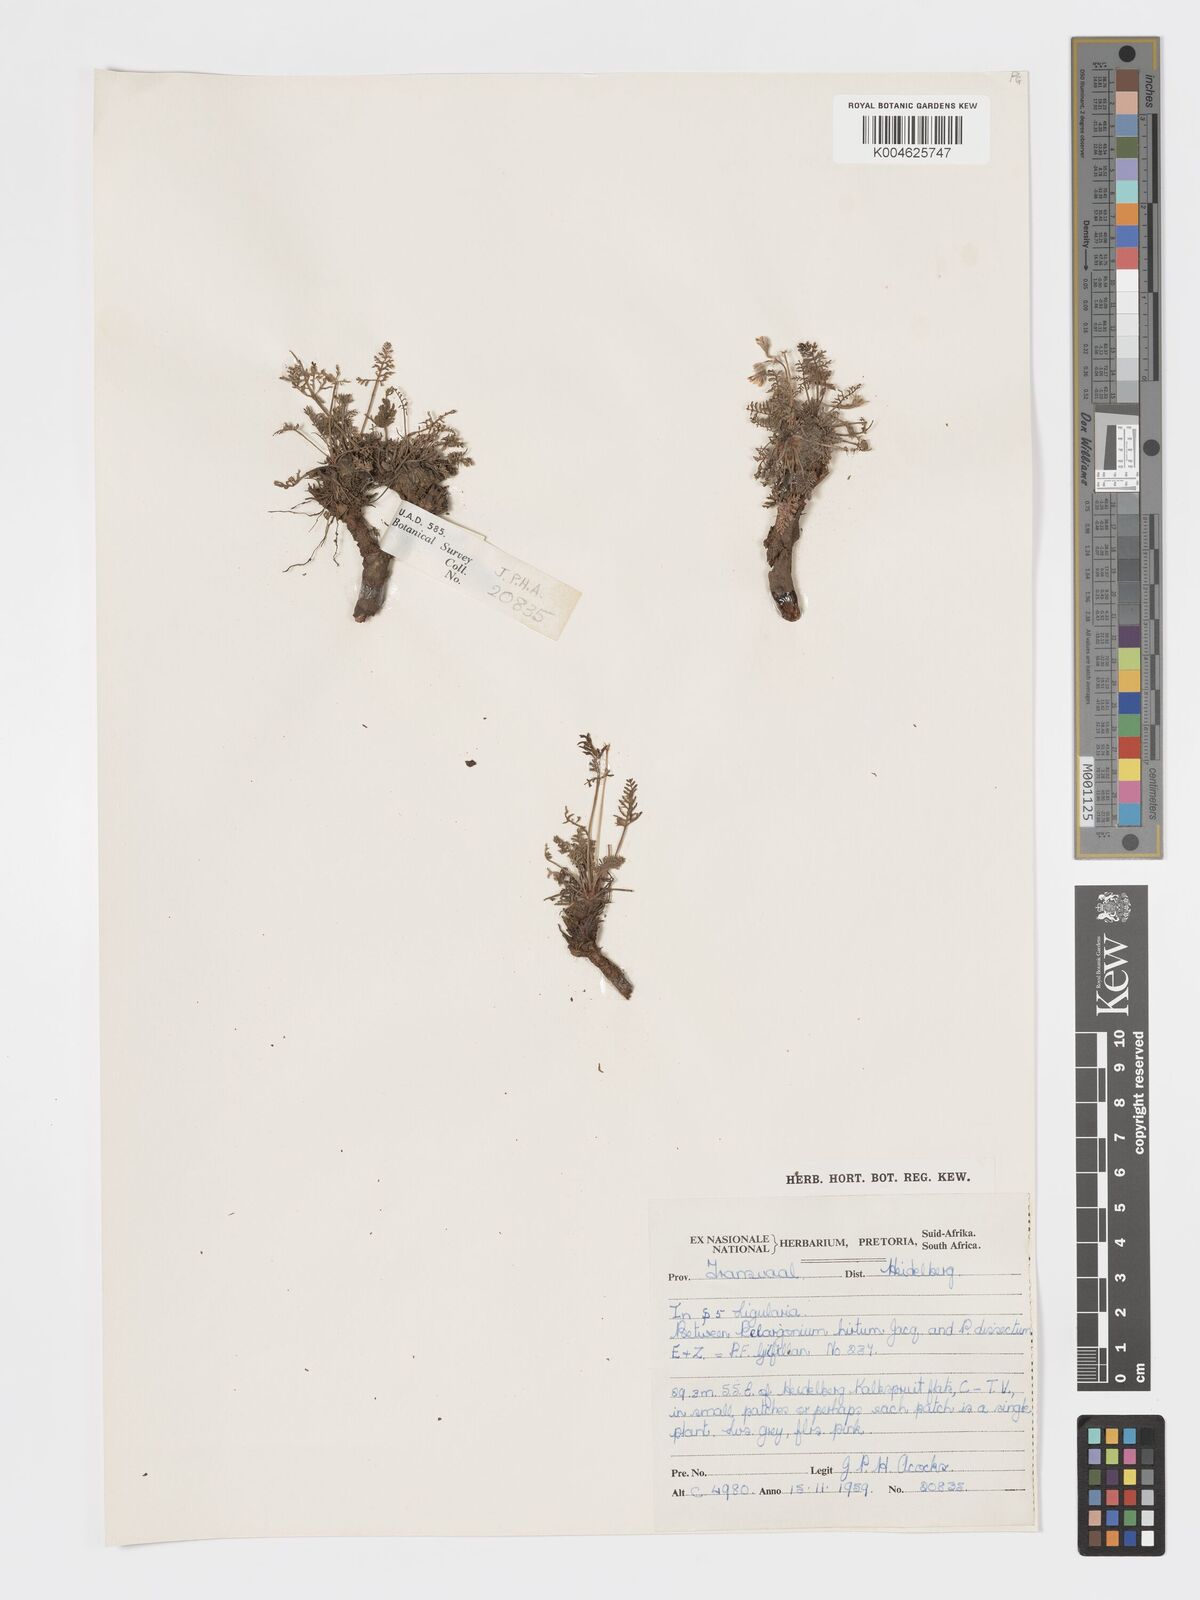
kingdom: Plantae
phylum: Tracheophyta
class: Magnoliopsida
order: Geraniales
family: Geraniaceae
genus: Pelargonium
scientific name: Pelargonium
